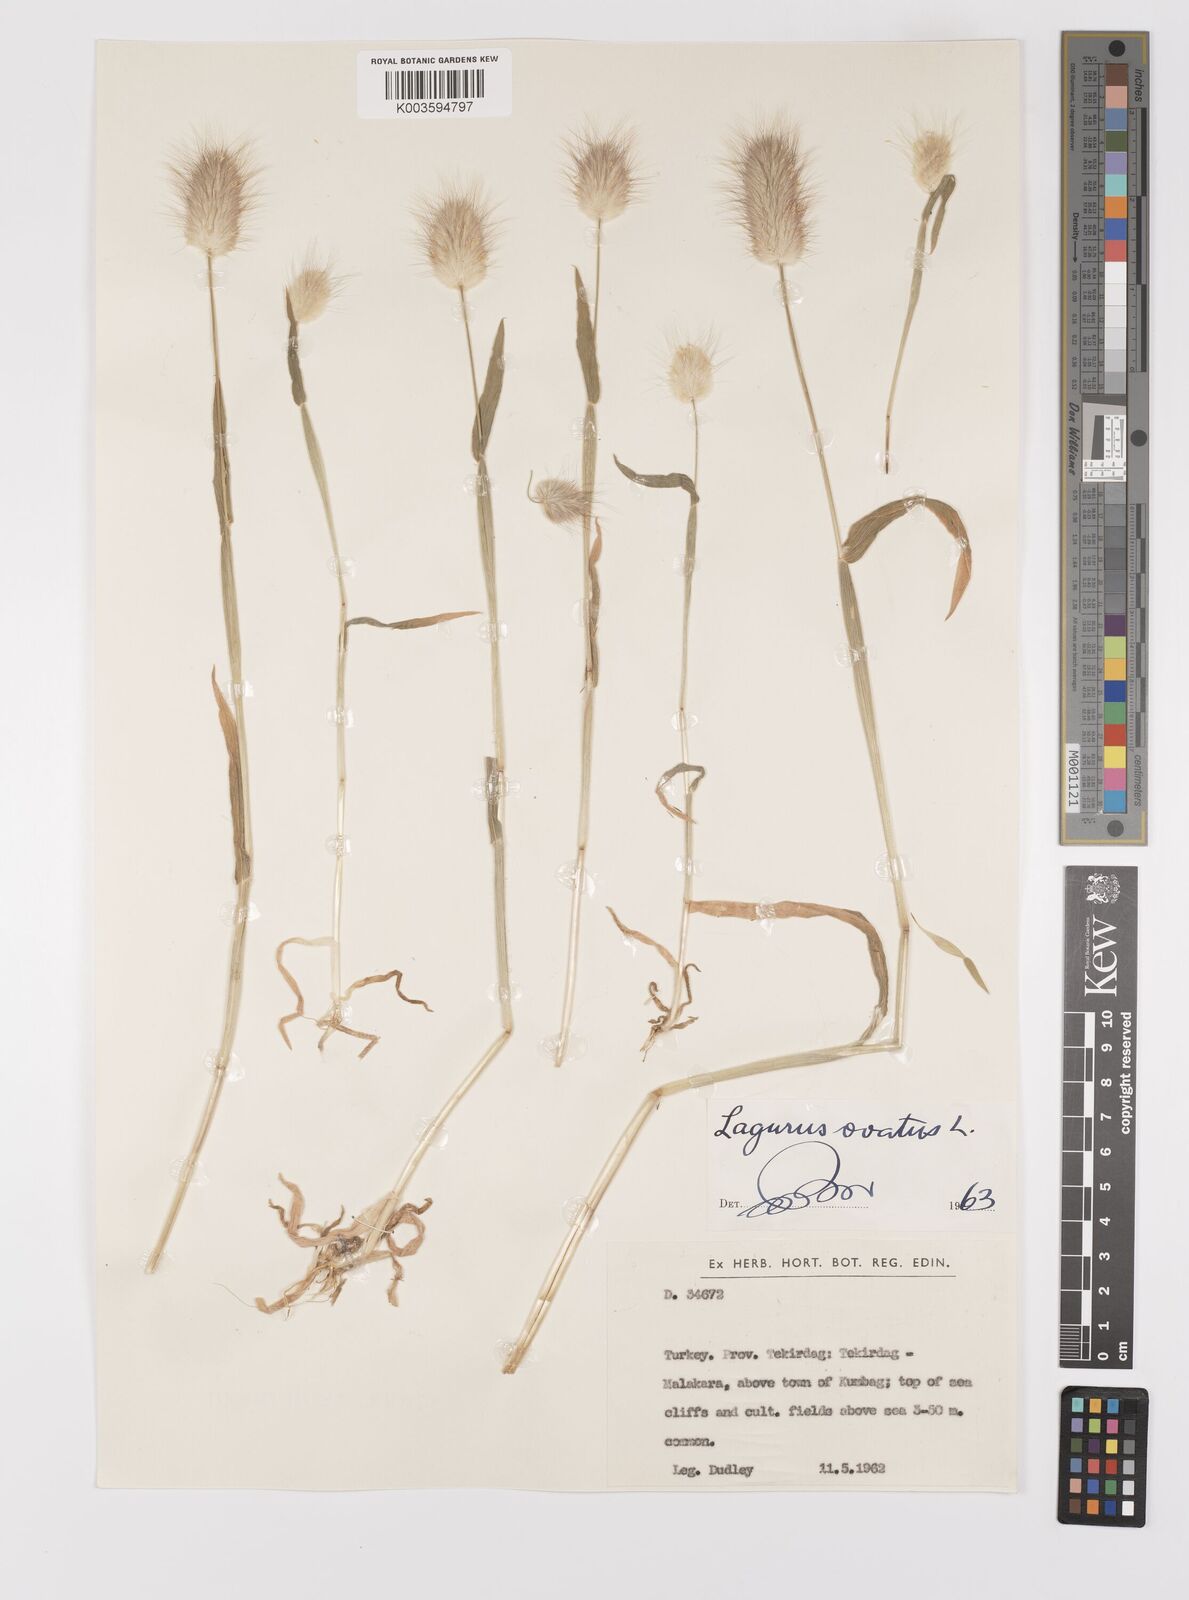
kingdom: Plantae
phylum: Tracheophyta
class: Liliopsida
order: Poales
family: Poaceae
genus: Lagurus
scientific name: Lagurus ovatus
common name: Hare's-tail
